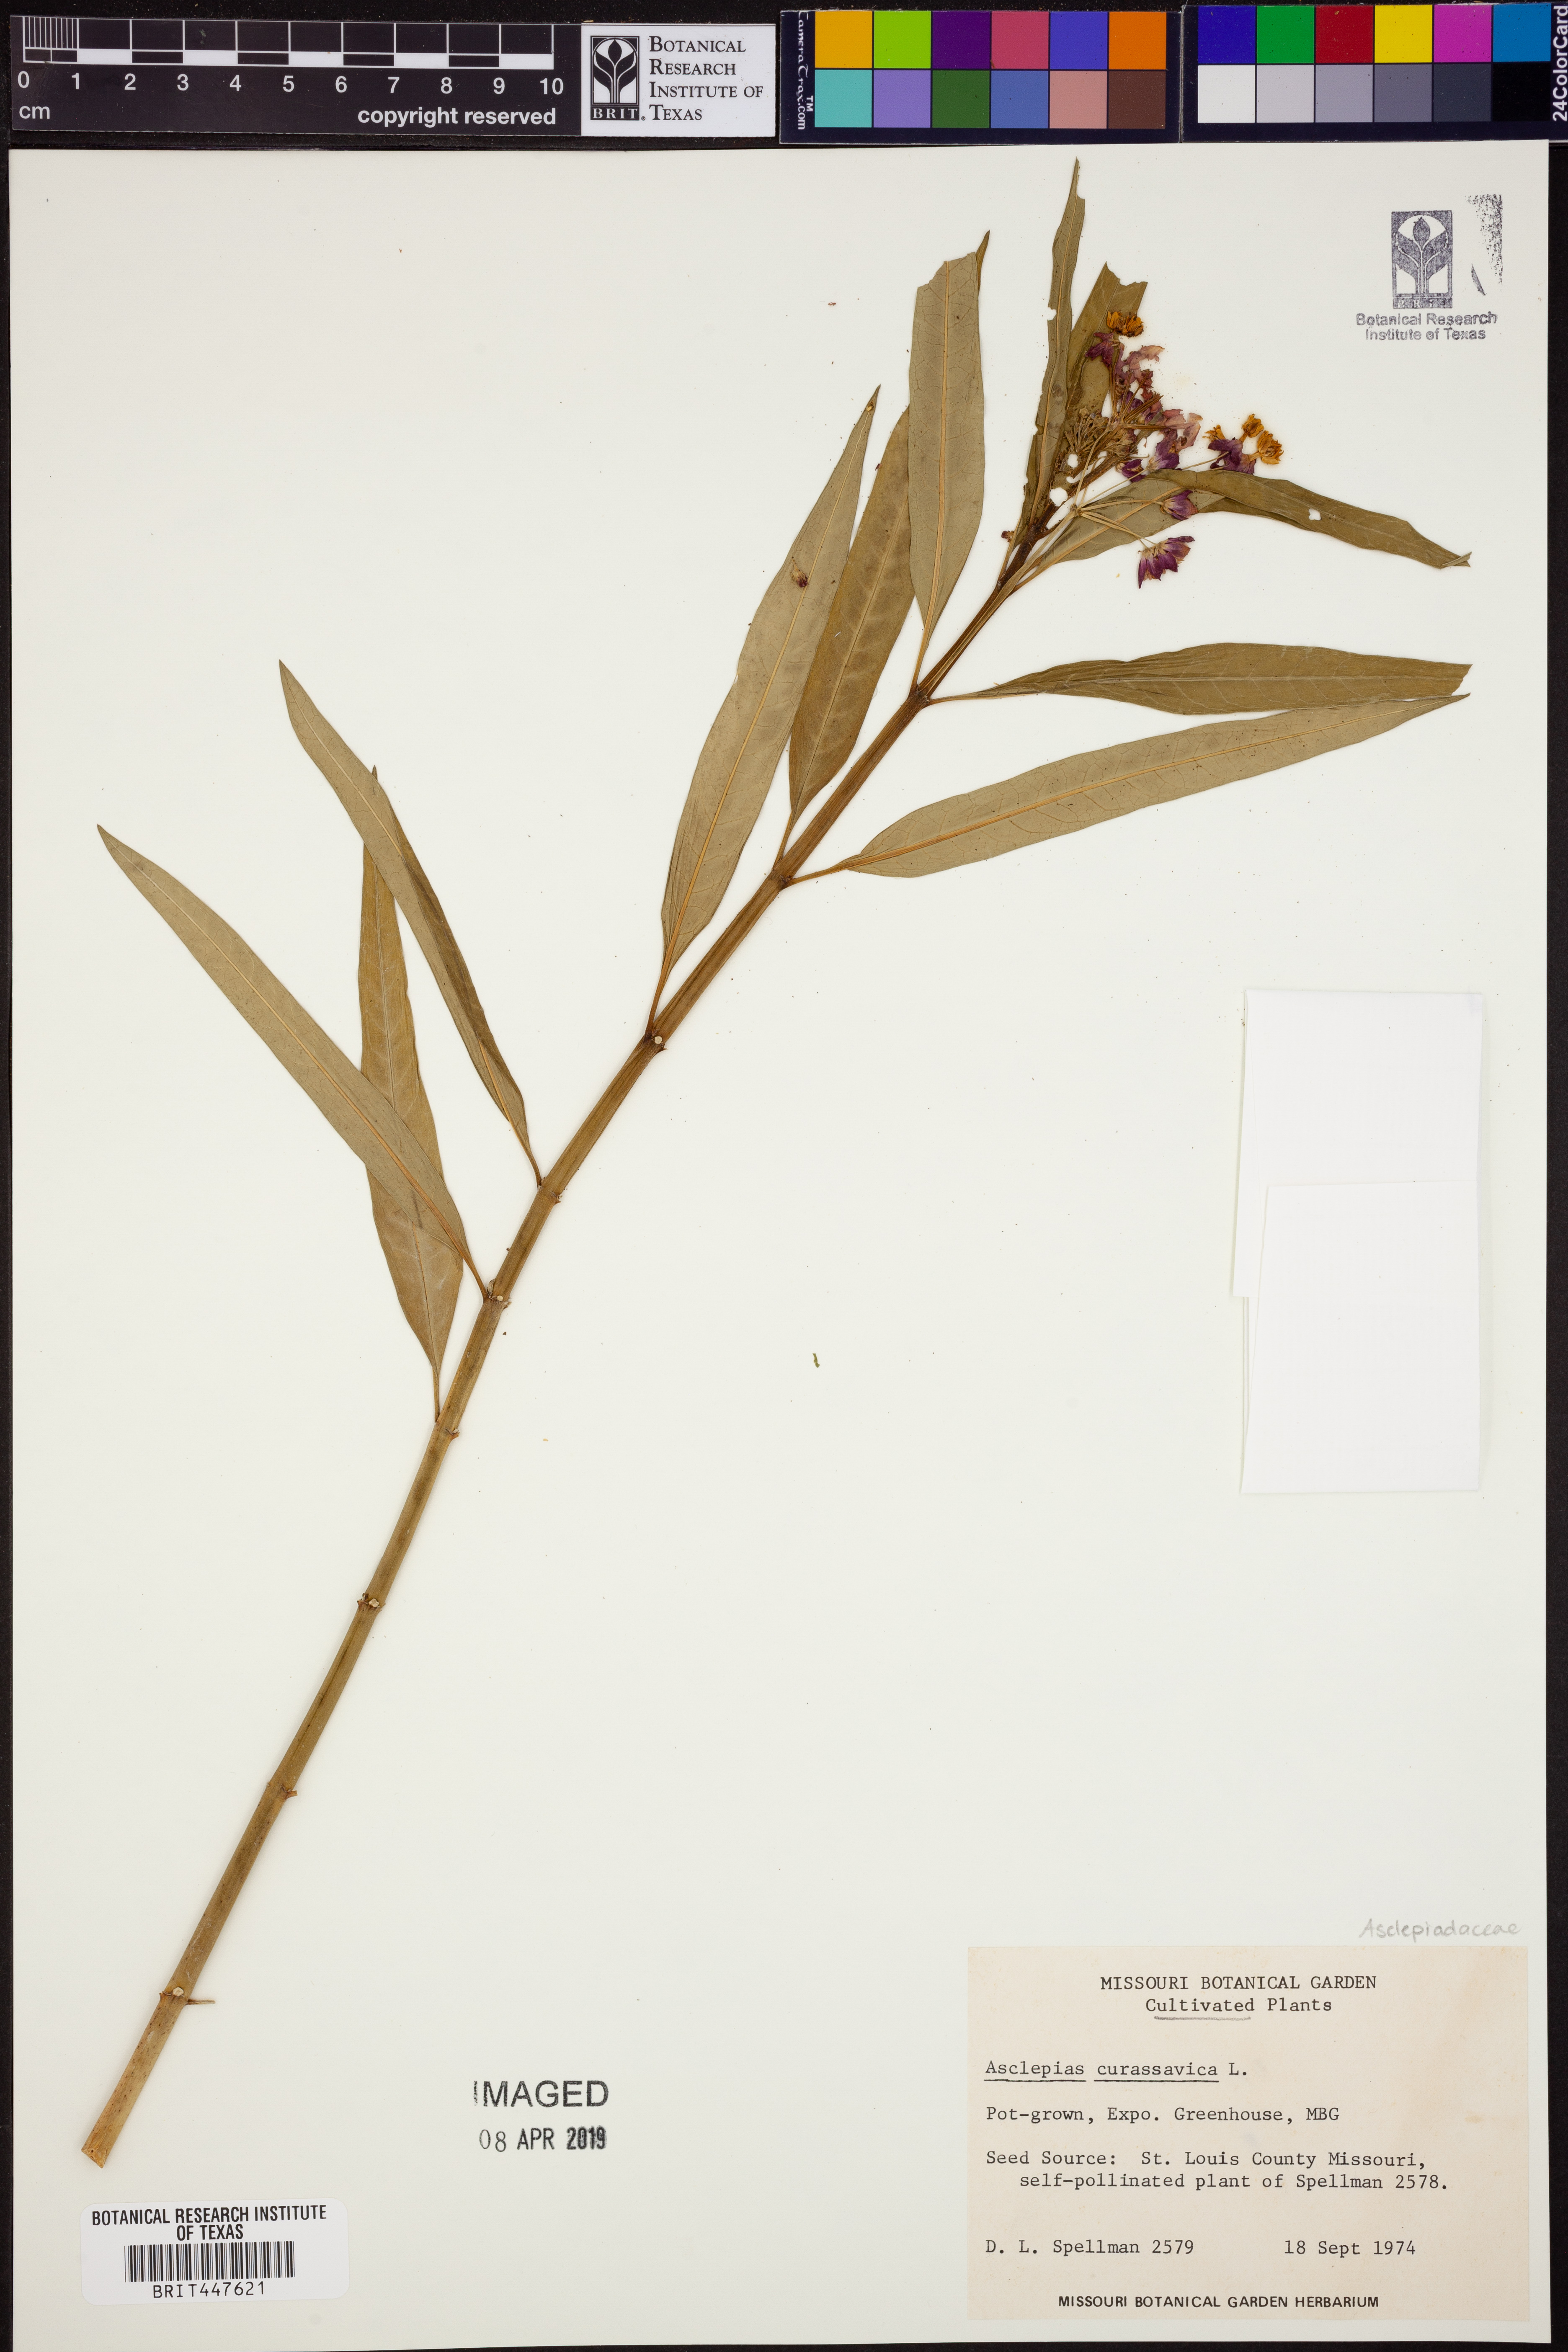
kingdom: Plantae
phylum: Tracheophyta
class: Magnoliopsida
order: Gentianales
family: Apocynaceae
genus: Asclepias
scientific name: Asclepias curassavica
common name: Bloodflower
